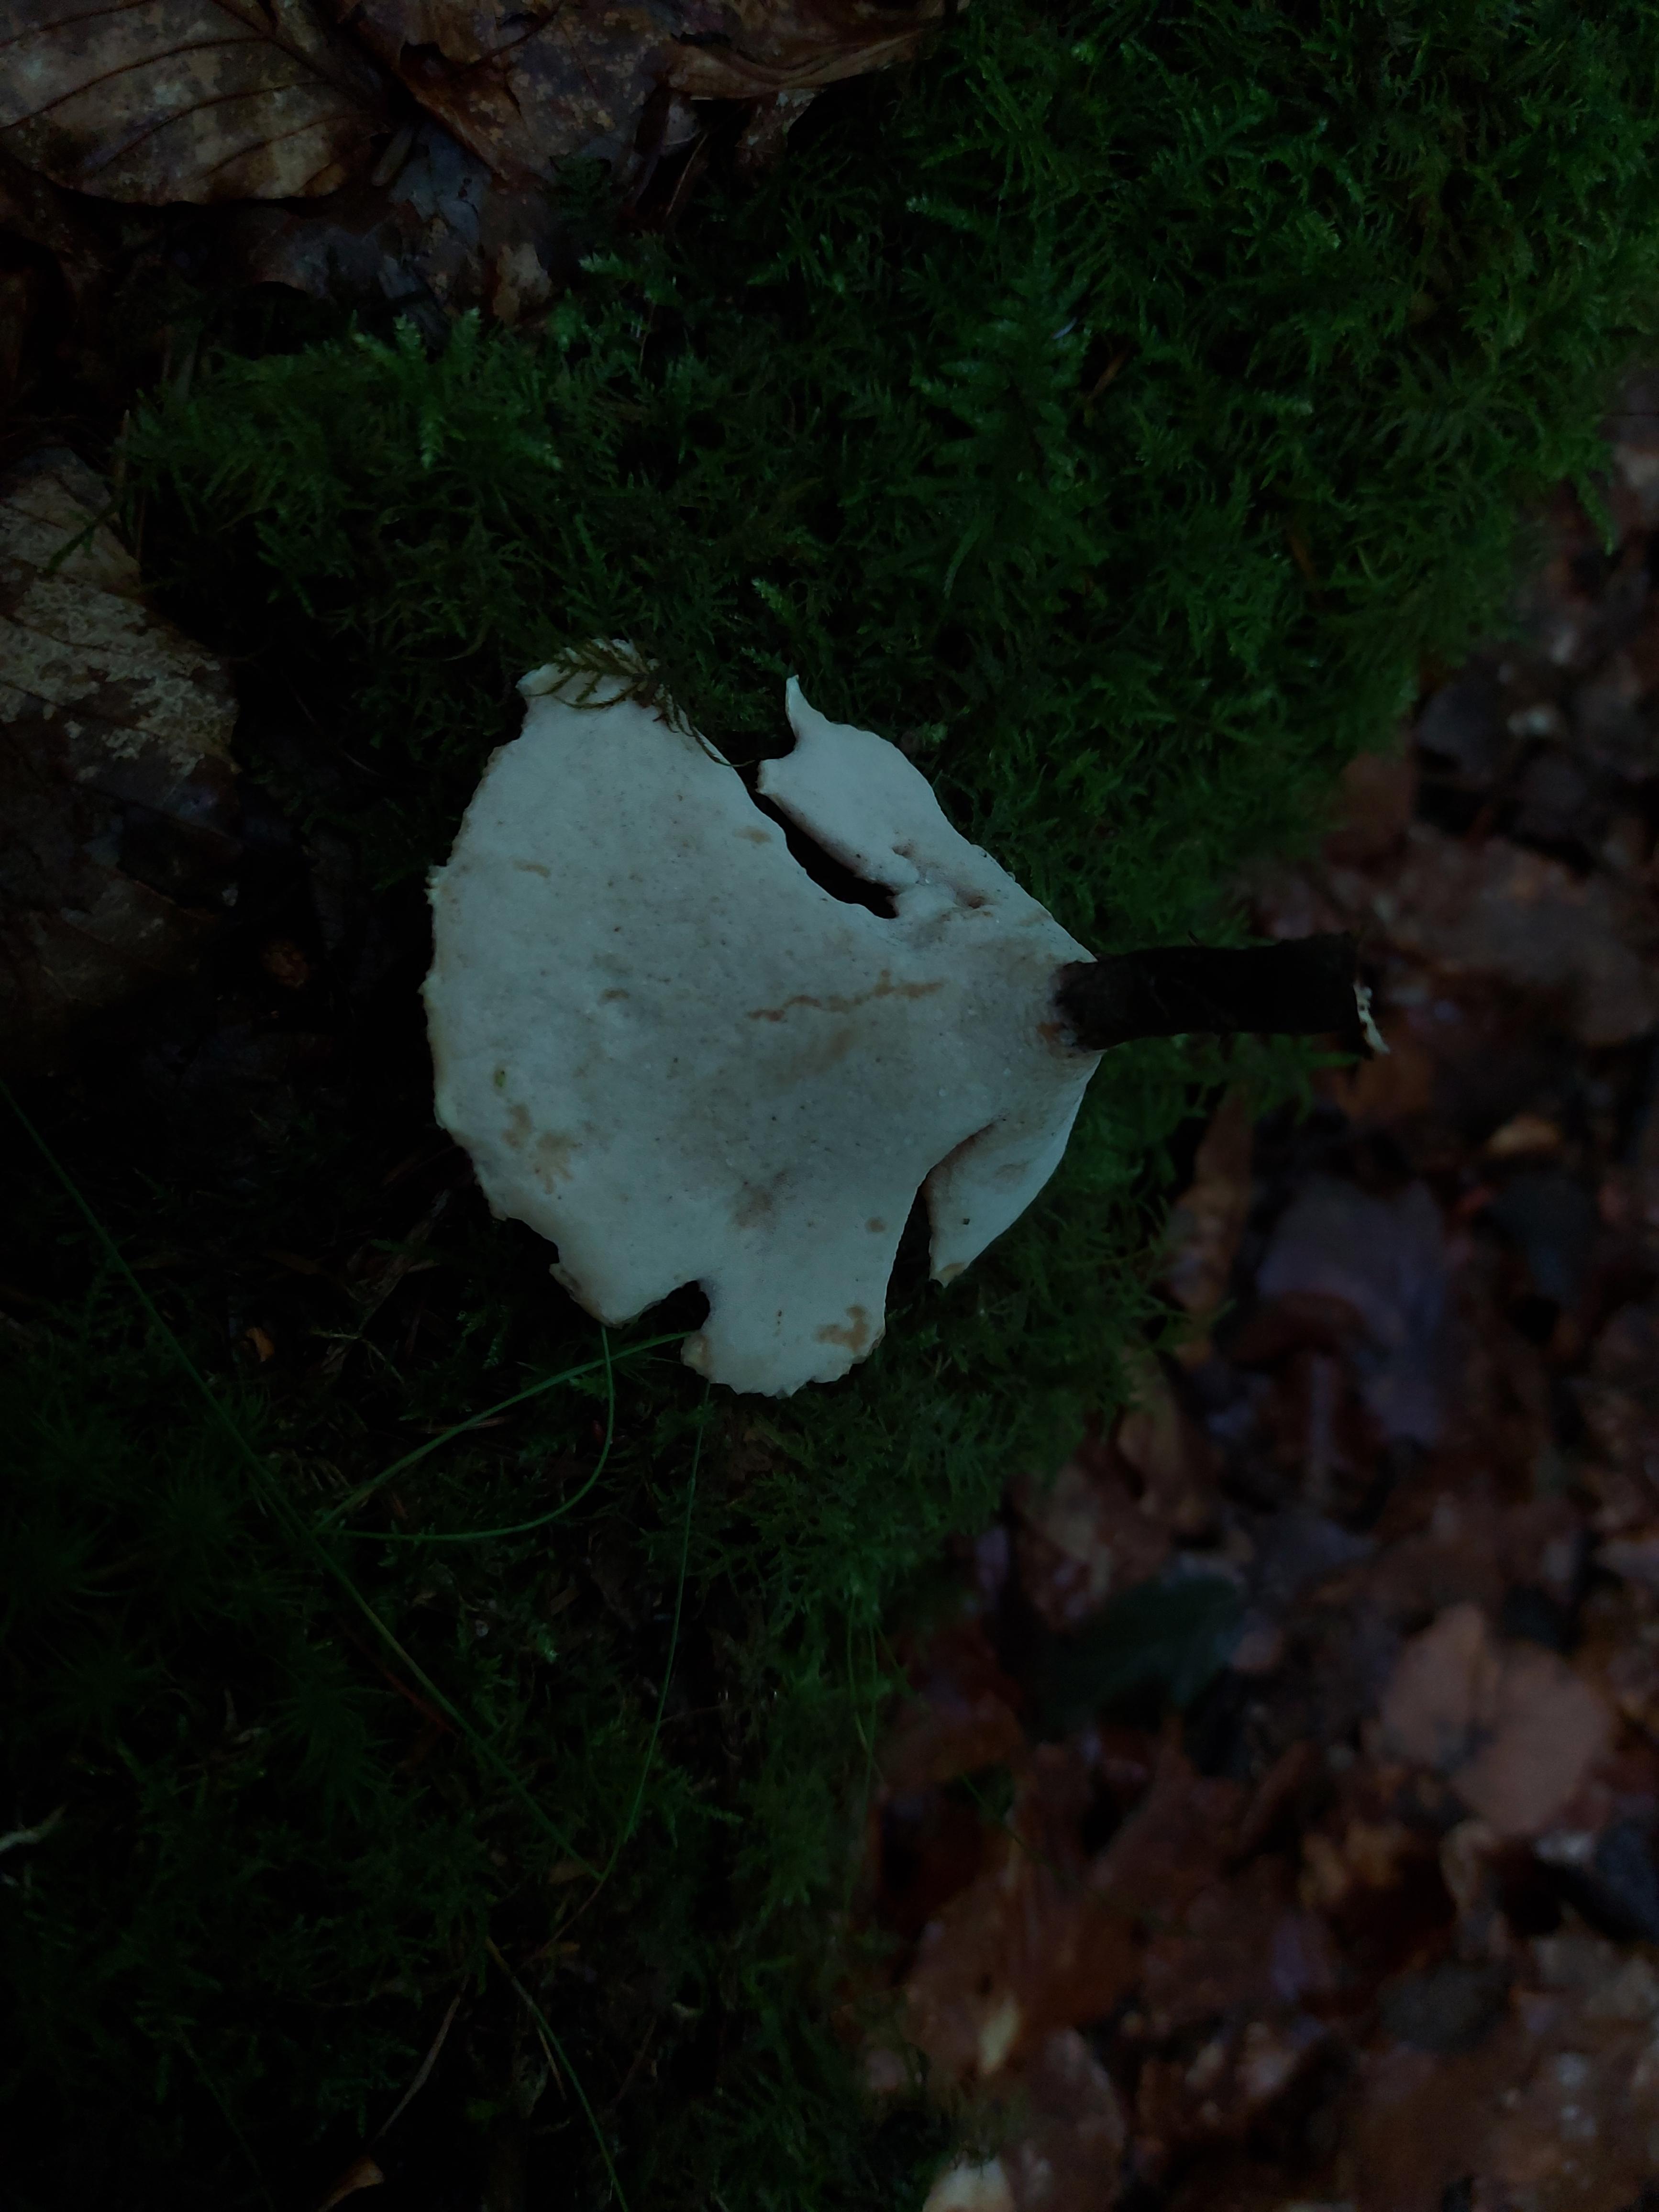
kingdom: Fungi
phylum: Basidiomycota
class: Agaricomycetes
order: Polyporales
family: Polyporaceae
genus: Picipes
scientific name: Picipes badius
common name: kastaniebrun stilkporesvamp
